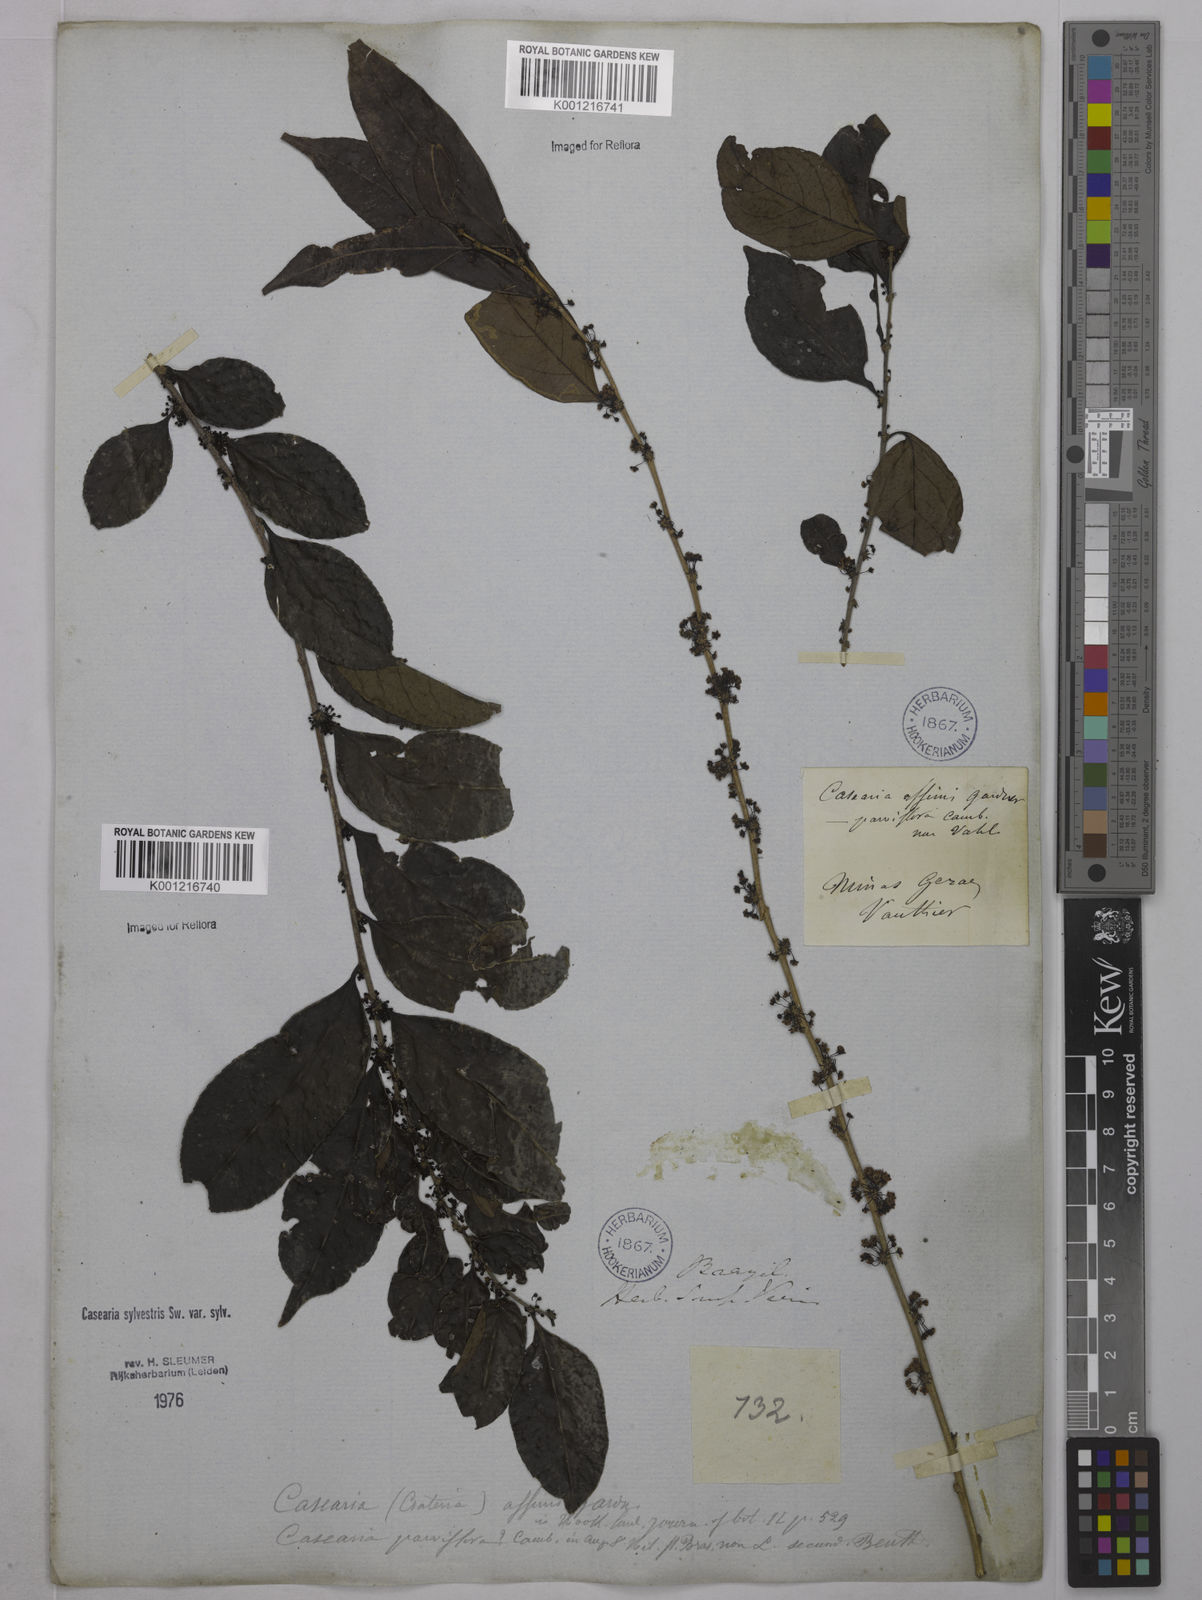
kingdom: Plantae
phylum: Tracheophyta
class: Magnoliopsida
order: Malpighiales
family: Salicaceae
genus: Casearia
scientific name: Casearia sylvestris
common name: Wild sage
